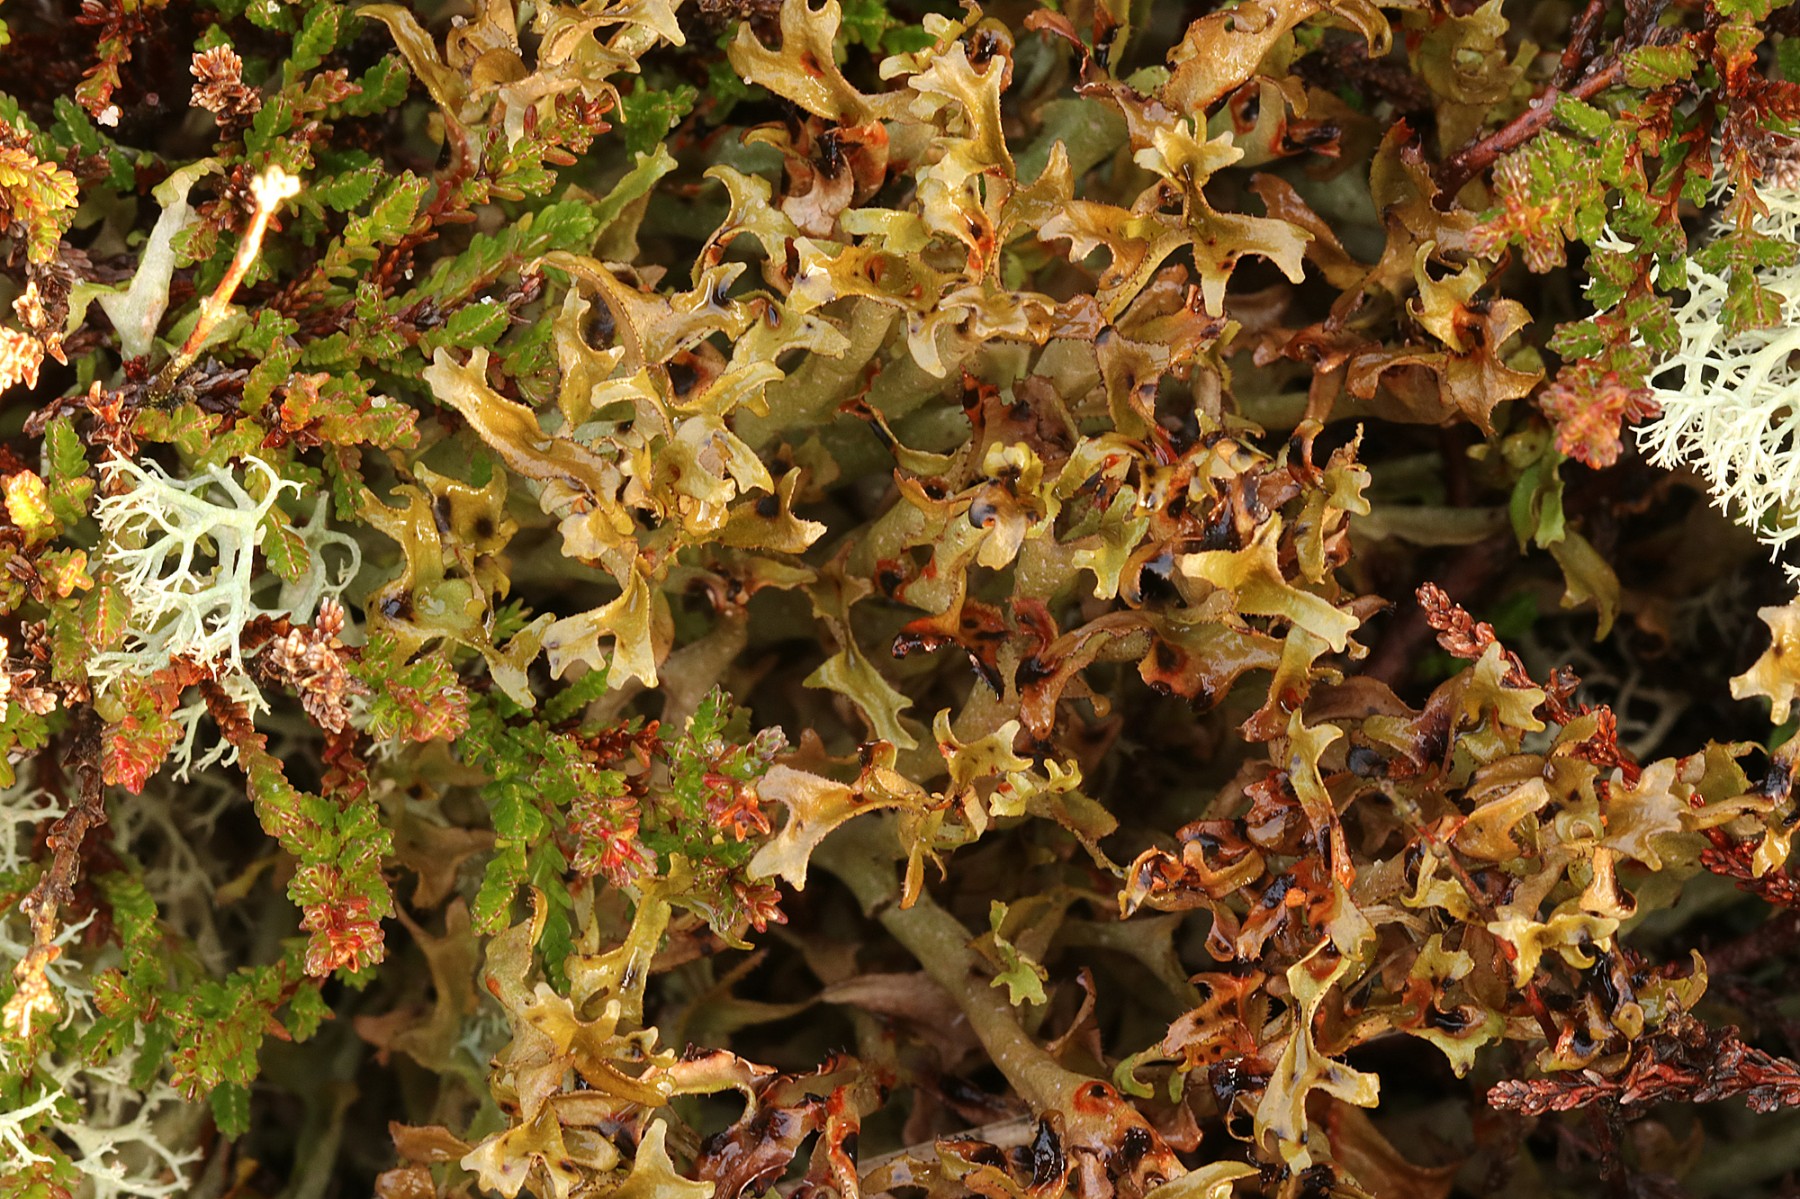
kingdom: Fungi
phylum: Ascomycota
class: Lecanoromycetes
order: Lecanorales
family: Parmeliaceae
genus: Cetraria
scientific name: Cetraria islandica
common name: islandsk kruslav
